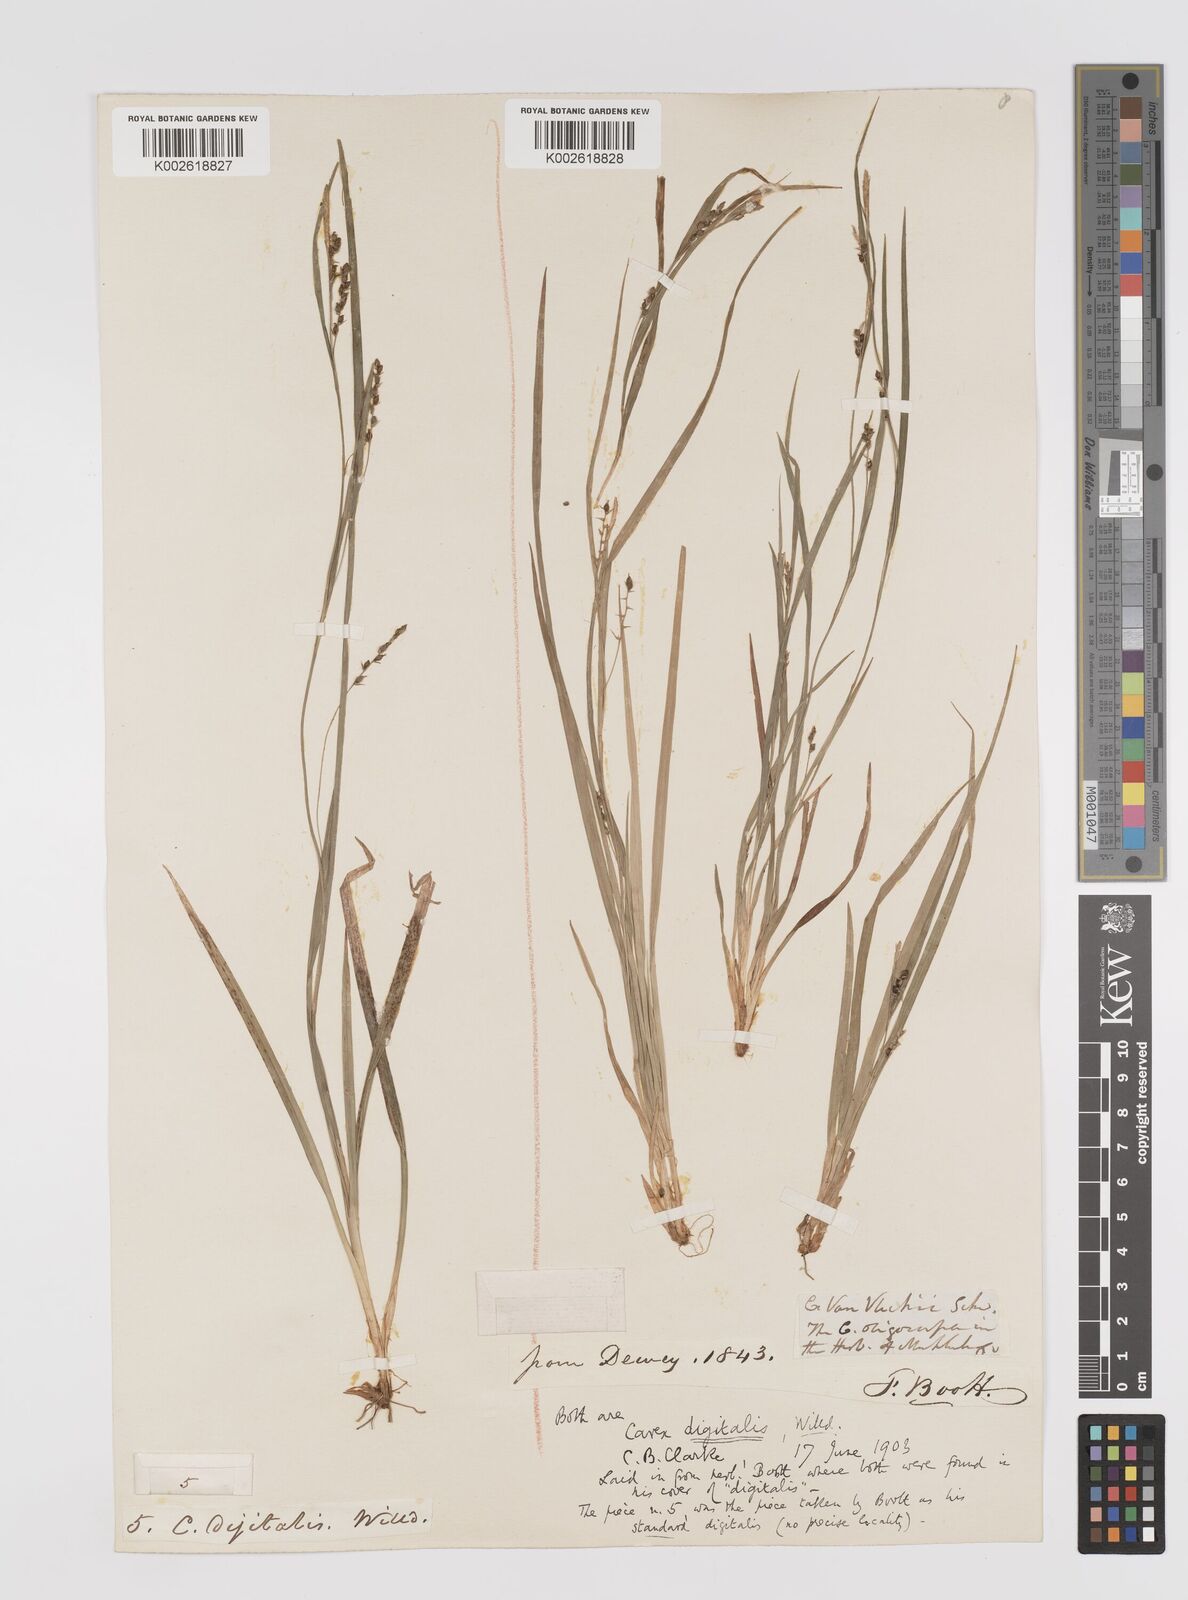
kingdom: Plantae
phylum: Tracheophyta
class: Liliopsida
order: Poales
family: Cyperaceae
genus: Carex
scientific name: Carex digitalis
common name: Slender wood sedge
